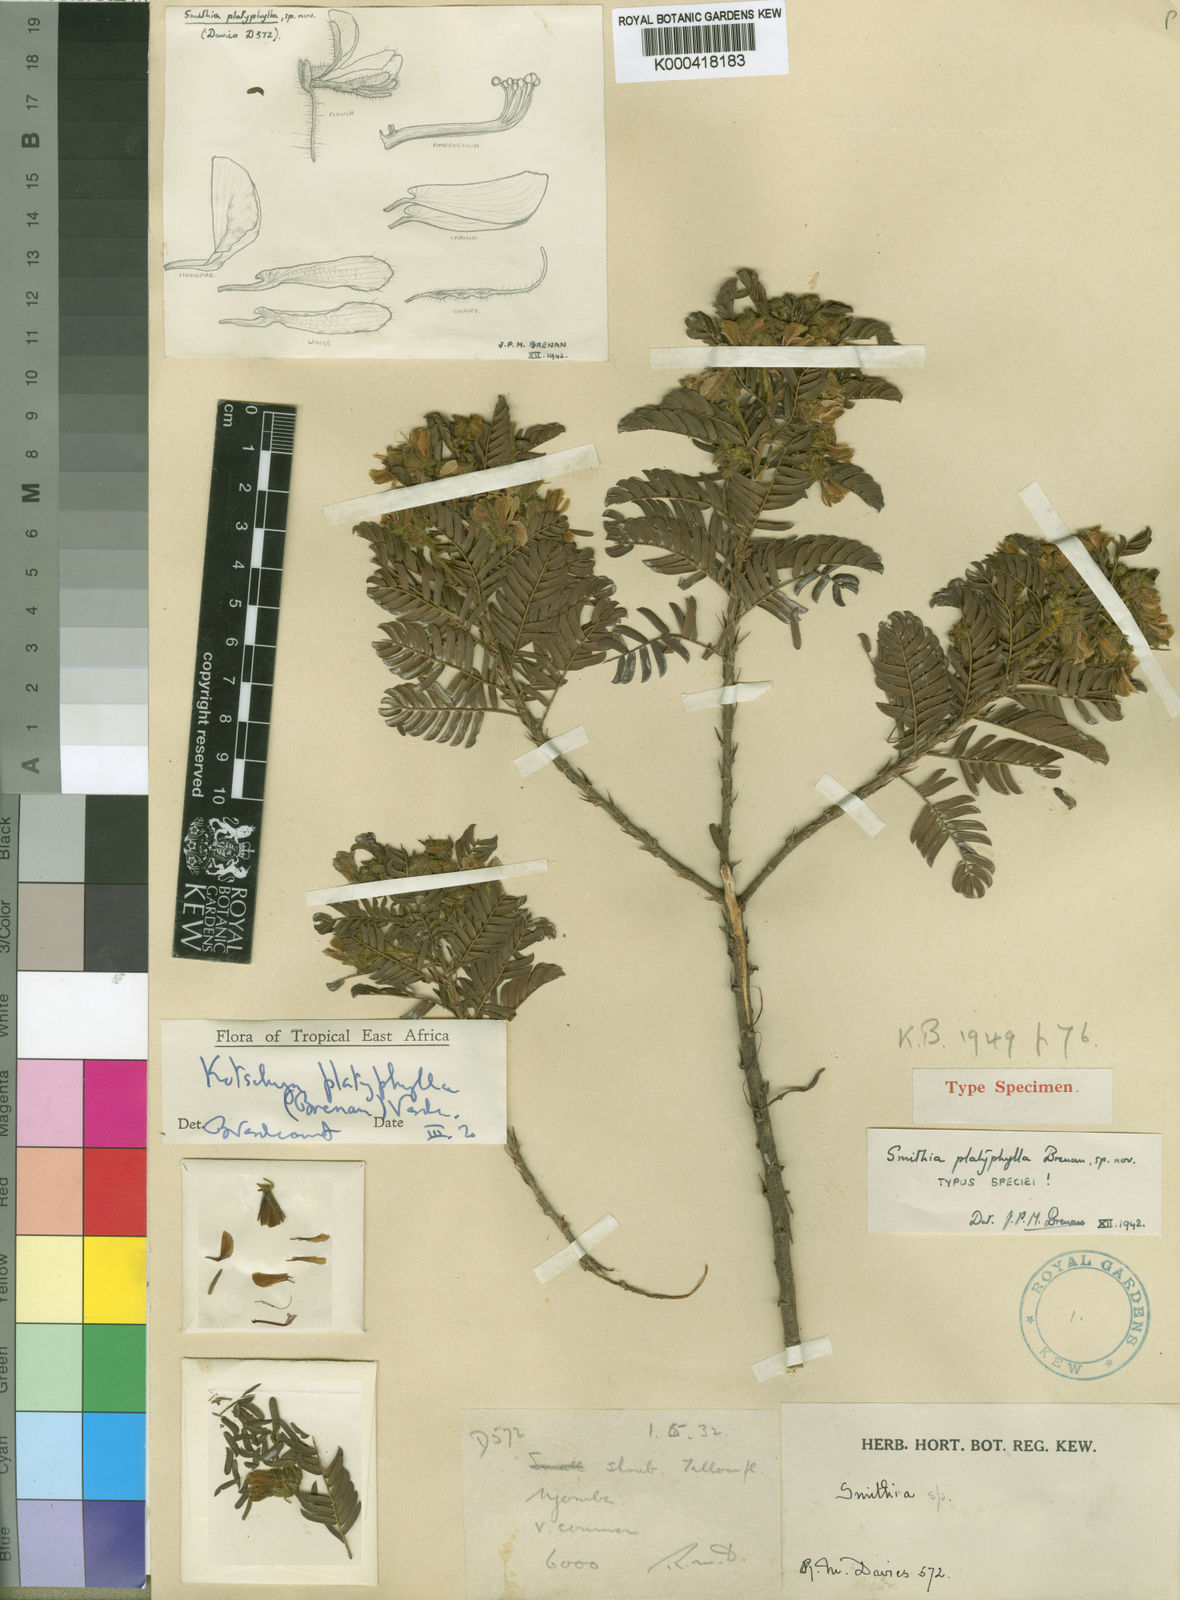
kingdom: Plantae
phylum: Tracheophyta
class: Magnoliopsida
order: Fabales
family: Fabaceae
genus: Kotschya
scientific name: Kotschya platyphylla
